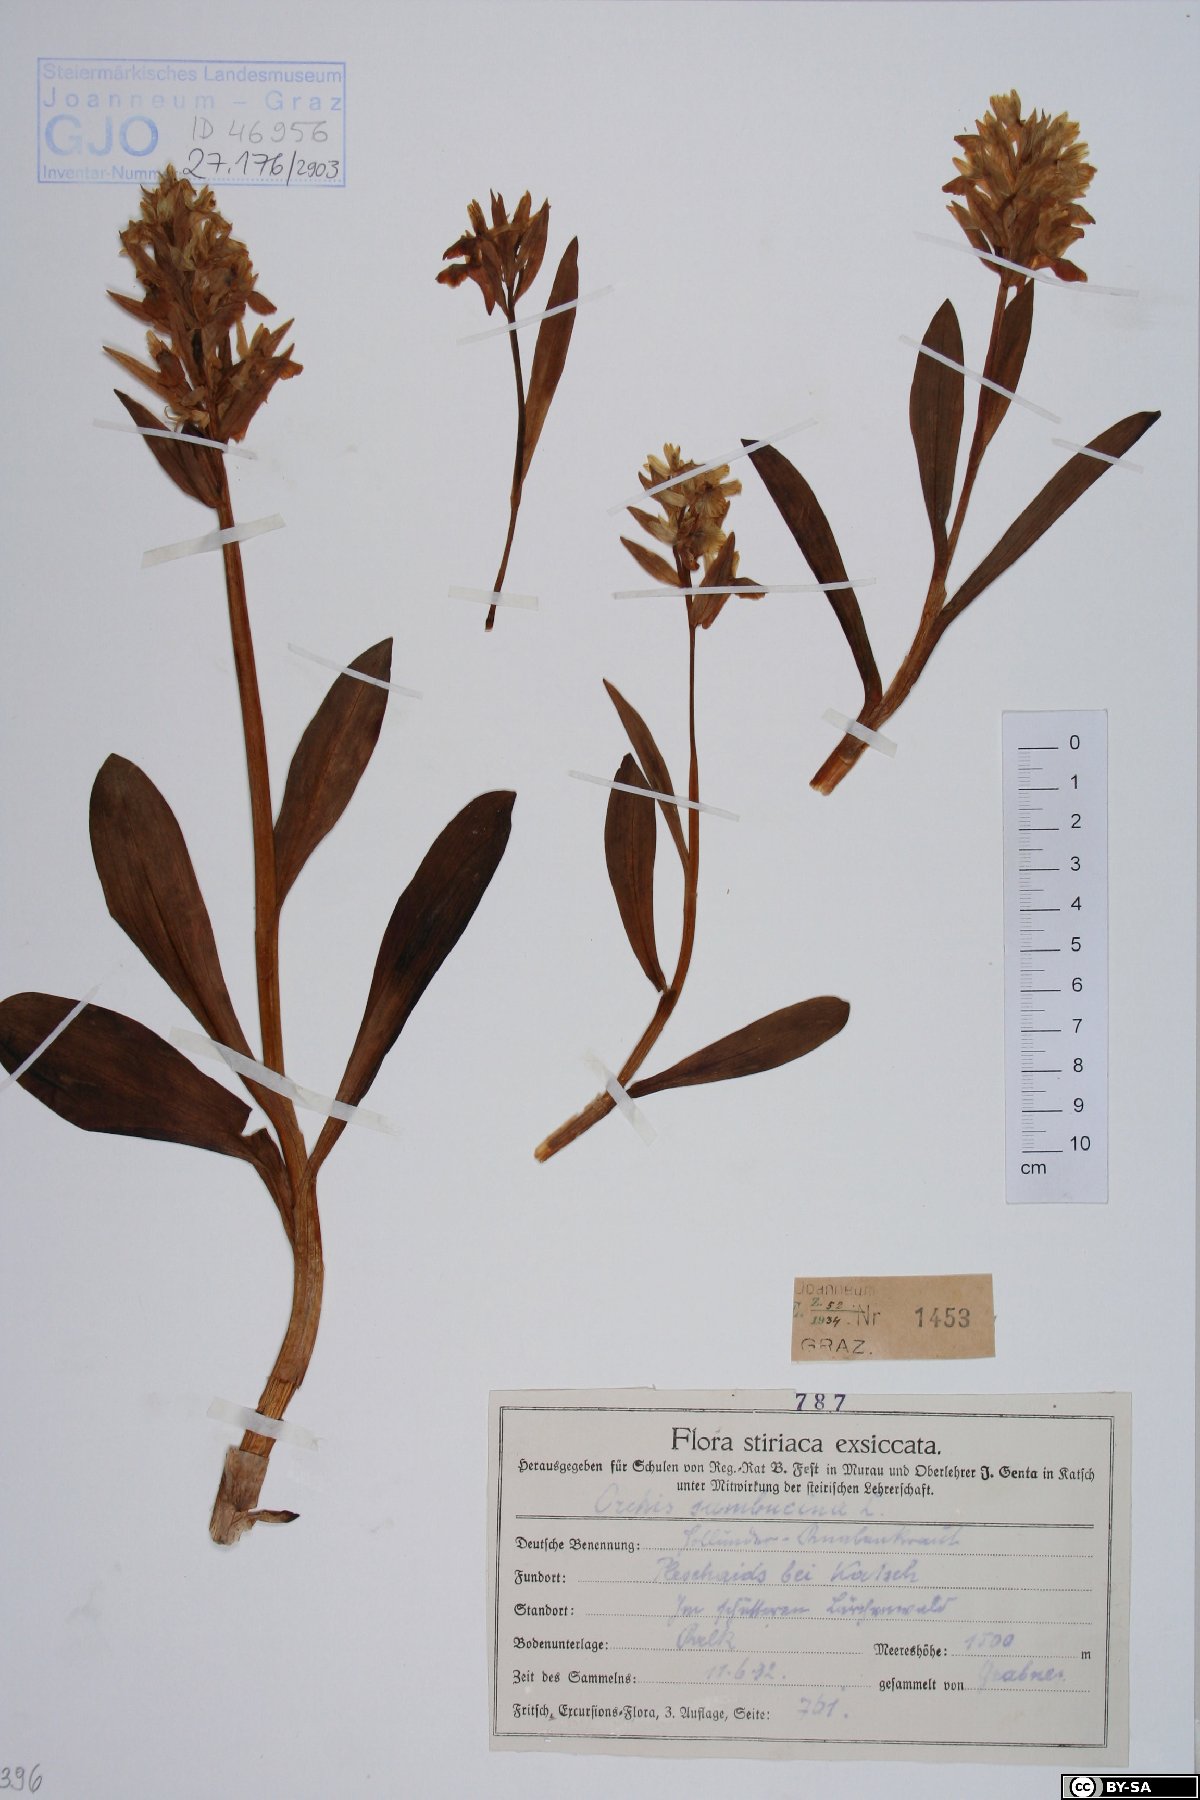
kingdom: Plantae
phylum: Tracheophyta
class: Liliopsida
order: Asparagales
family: Orchidaceae
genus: Dactylorhiza
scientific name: Dactylorhiza sambucina
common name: Elder-flowered orchid
